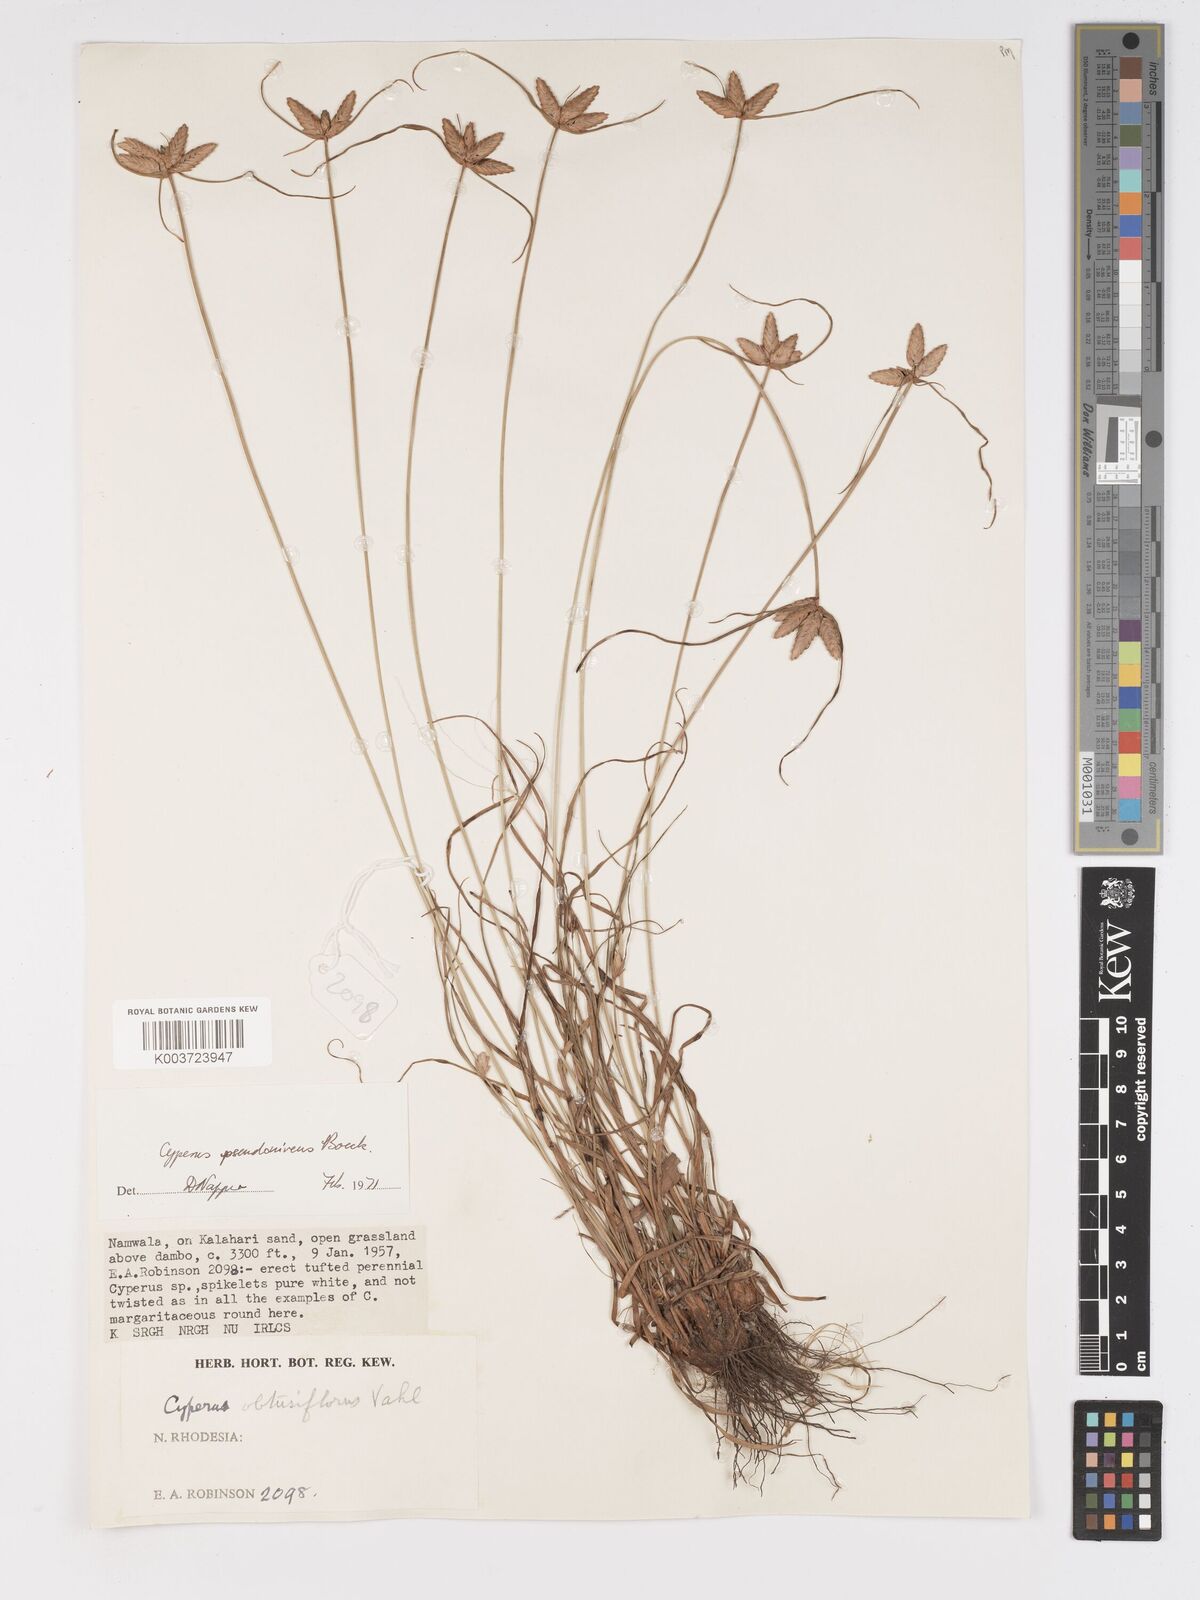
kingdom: Plantae
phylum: Tracheophyta
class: Liliopsida
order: Poales
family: Cyperaceae
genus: Cyperus
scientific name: Cyperus margaritaceus
